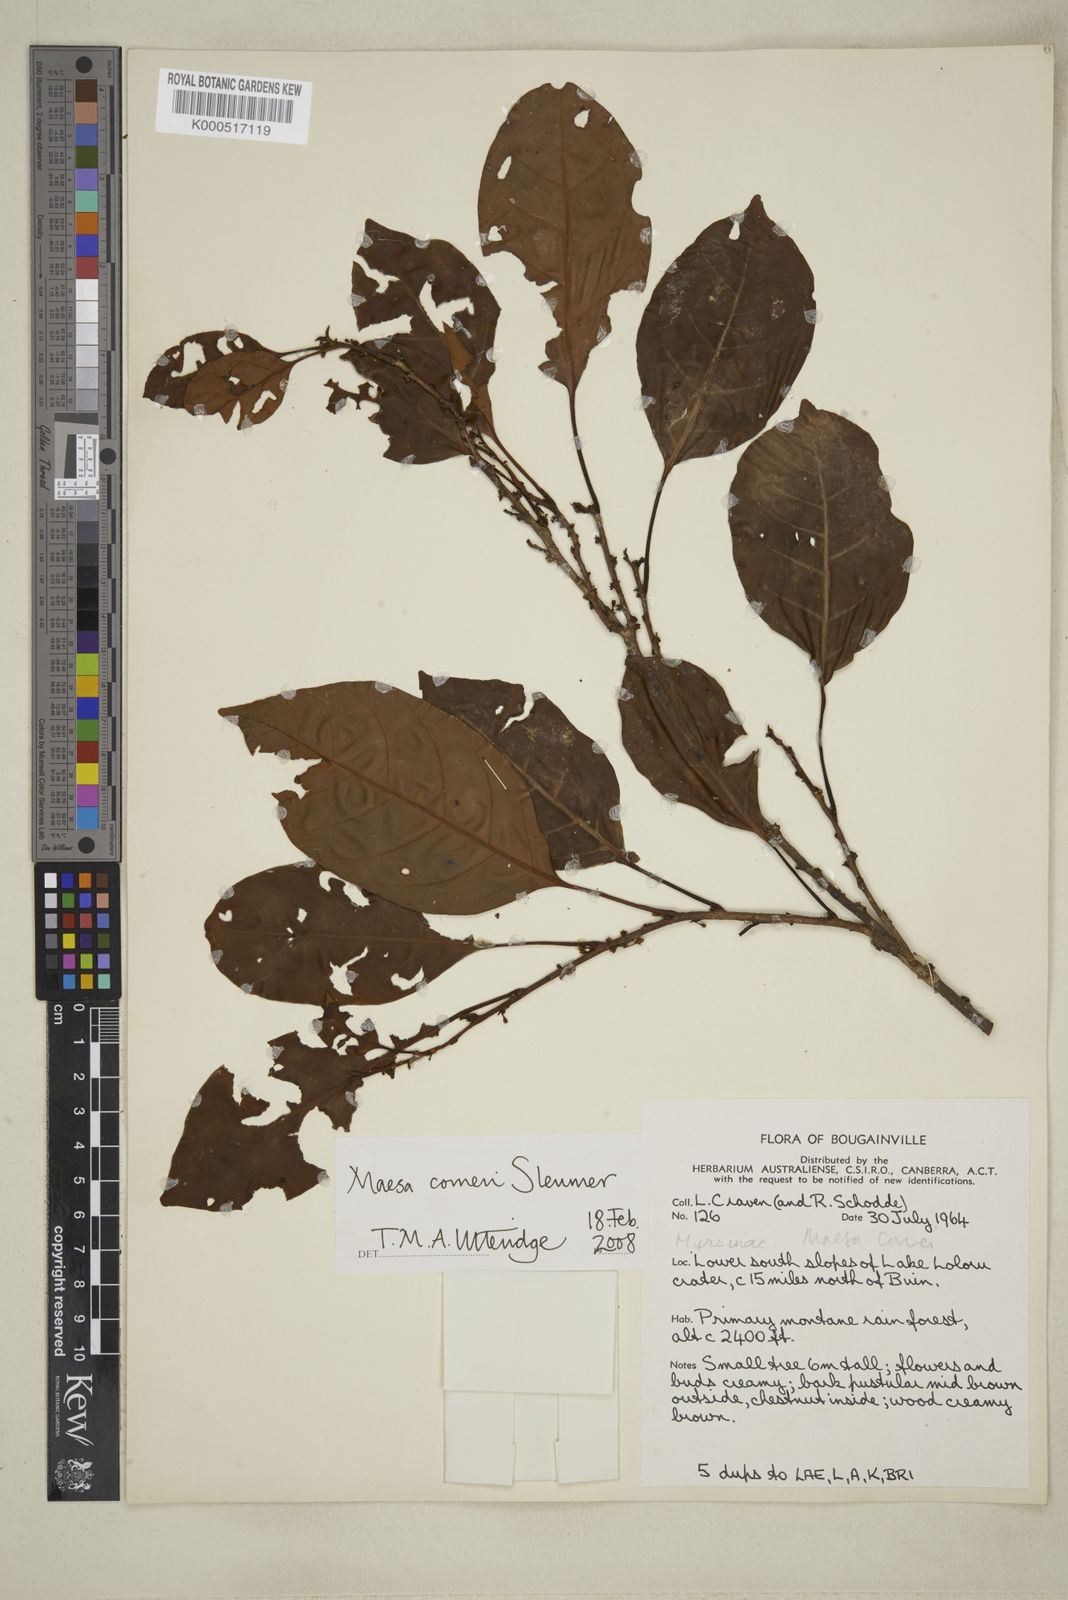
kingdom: Plantae
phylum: Tracheophyta
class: Magnoliopsida
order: Ericales
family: Primulaceae
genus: Maesa
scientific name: Maesa corneri
